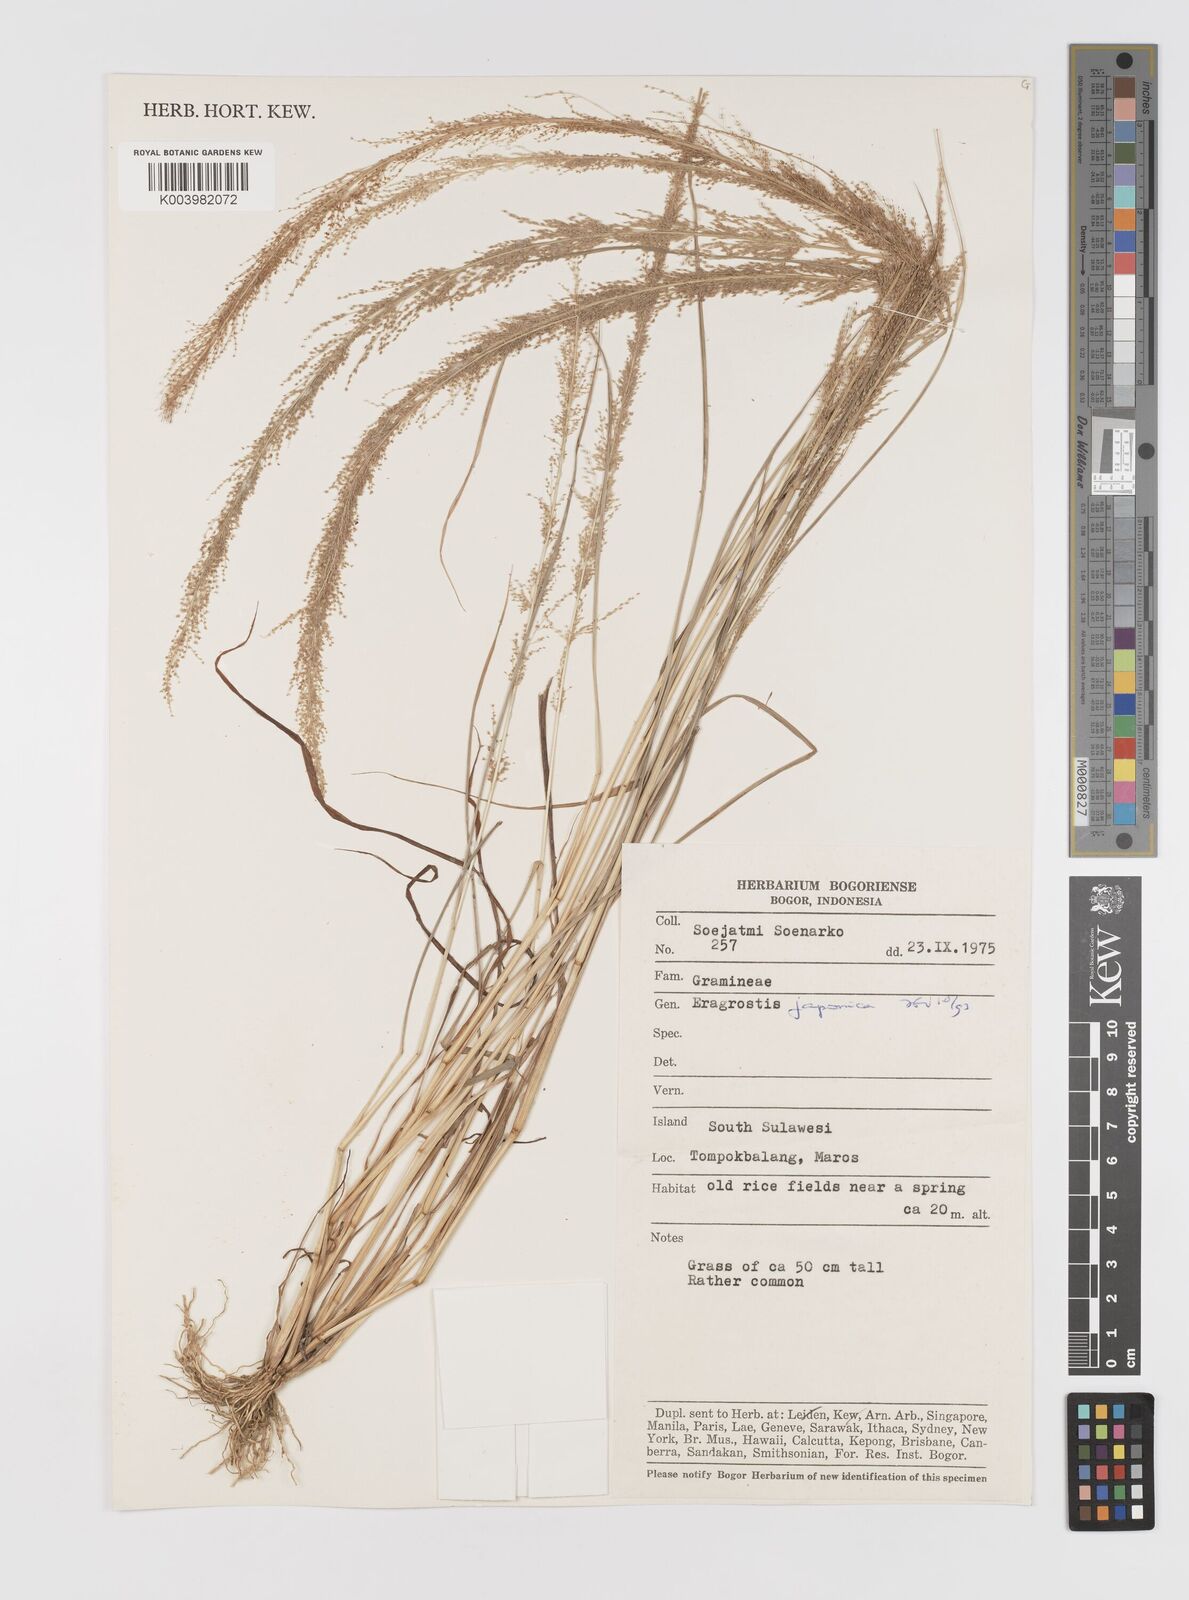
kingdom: Plantae
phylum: Tracheophyta
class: Liliopsida
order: Poales
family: Poaceae
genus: Eragrostis
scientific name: Eragrostis japonica
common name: Pond lovegrass
